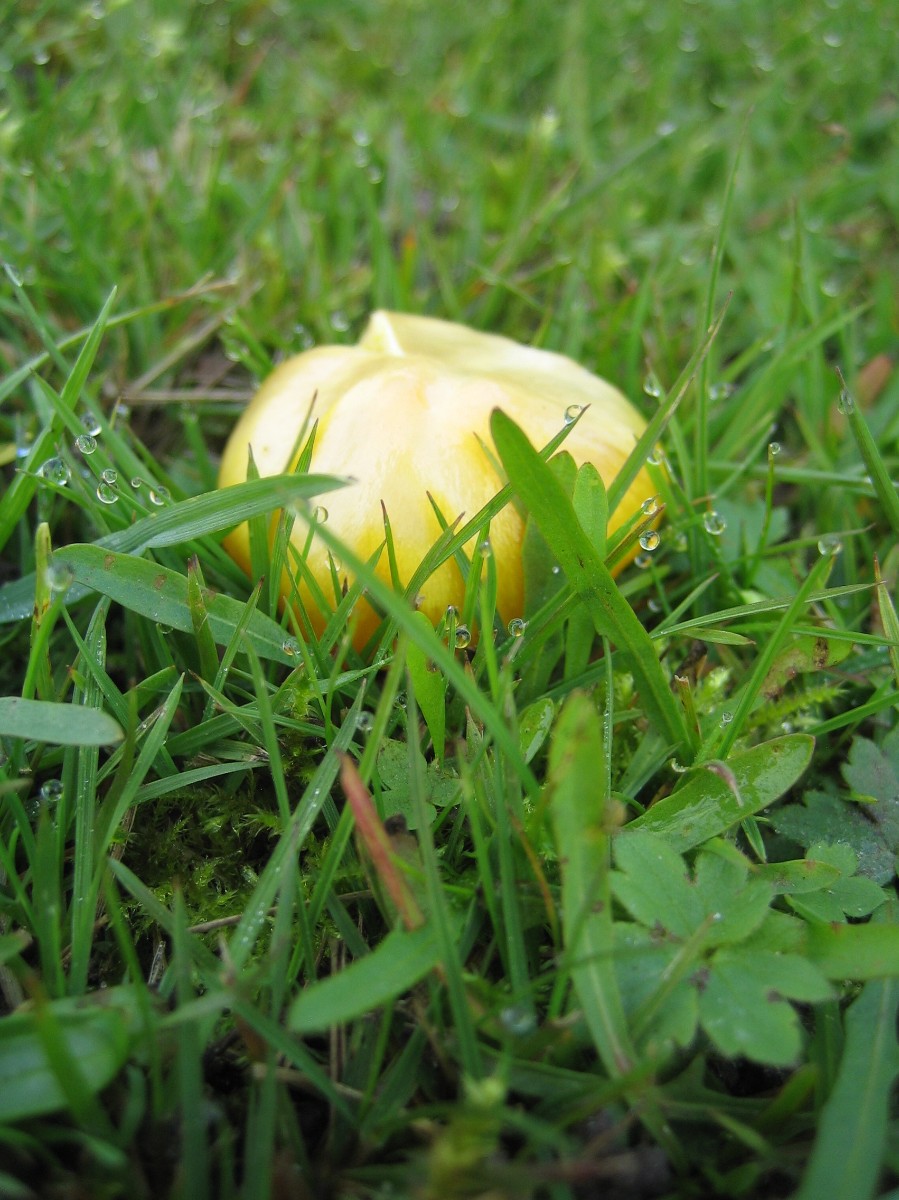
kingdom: Fungi
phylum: Basidiomycota
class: Agaricomycetes
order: Agaricales
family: Hygrophoraceae
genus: Hygrocybe
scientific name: Hygrocybe chlorophana
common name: gul vokshat
